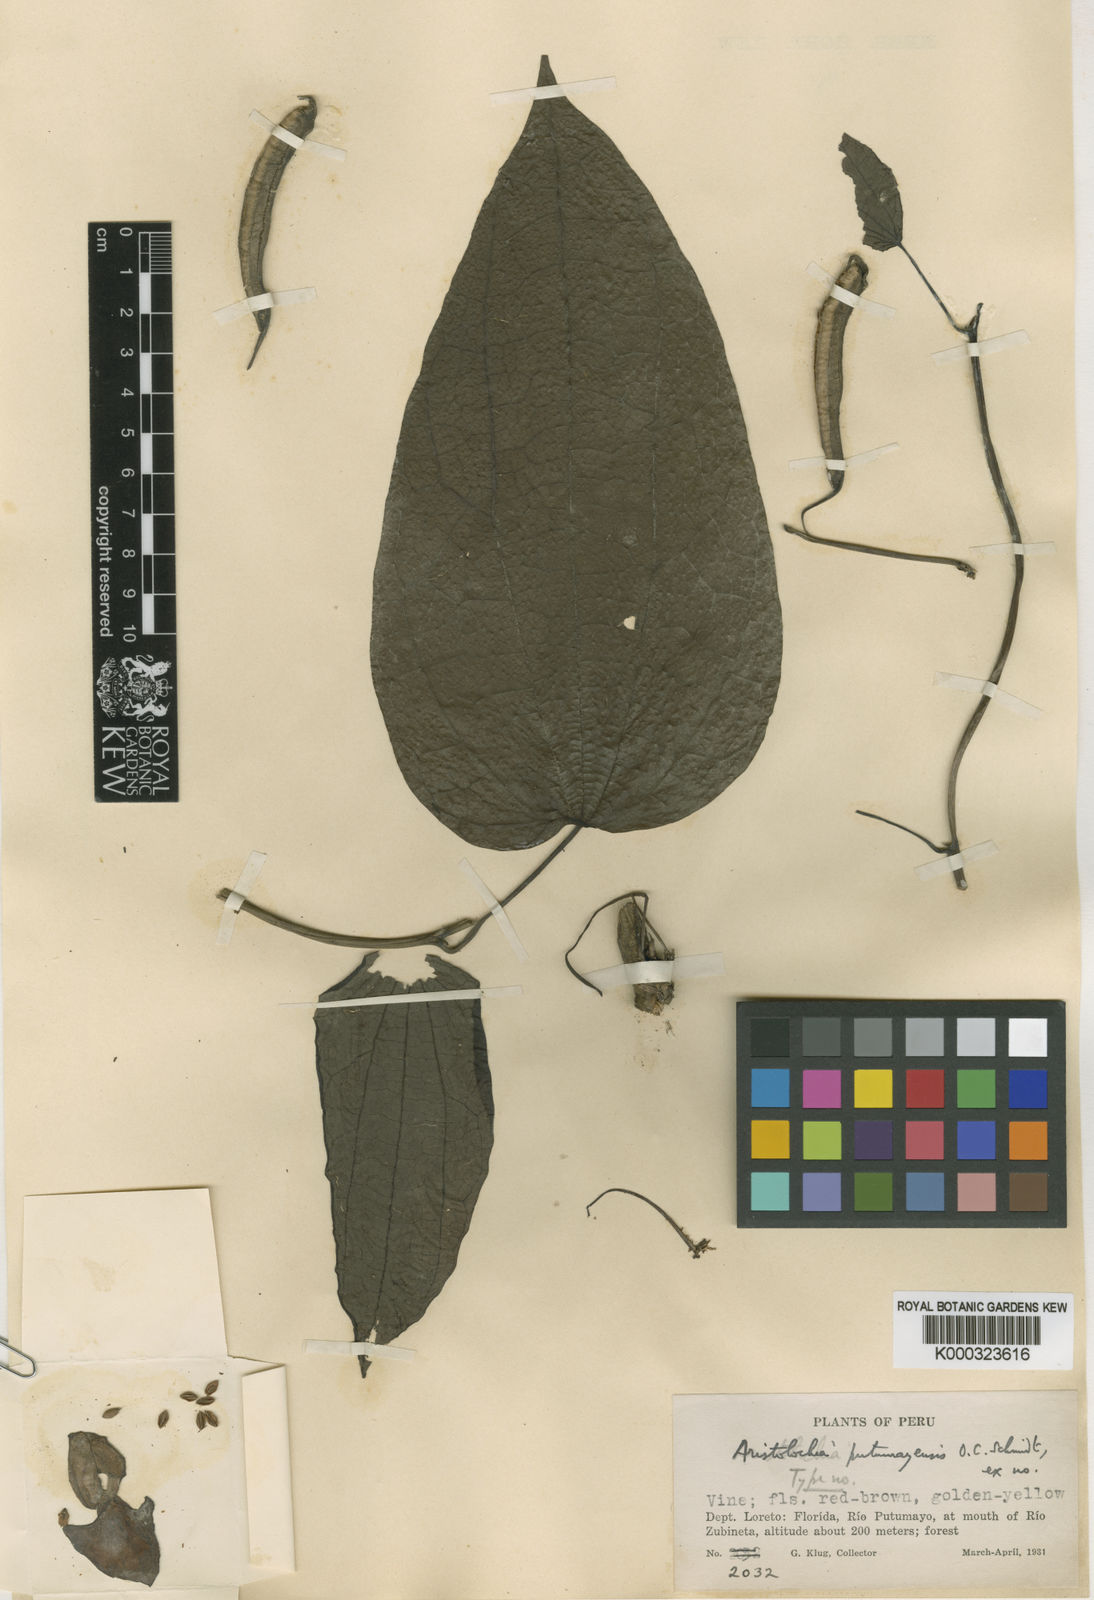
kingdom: Plantae
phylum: Tracheophyta
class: Magnoliopsida
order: Piperales
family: Aristolochiaceae
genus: Aristolochia
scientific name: Aristolochia guentheri
